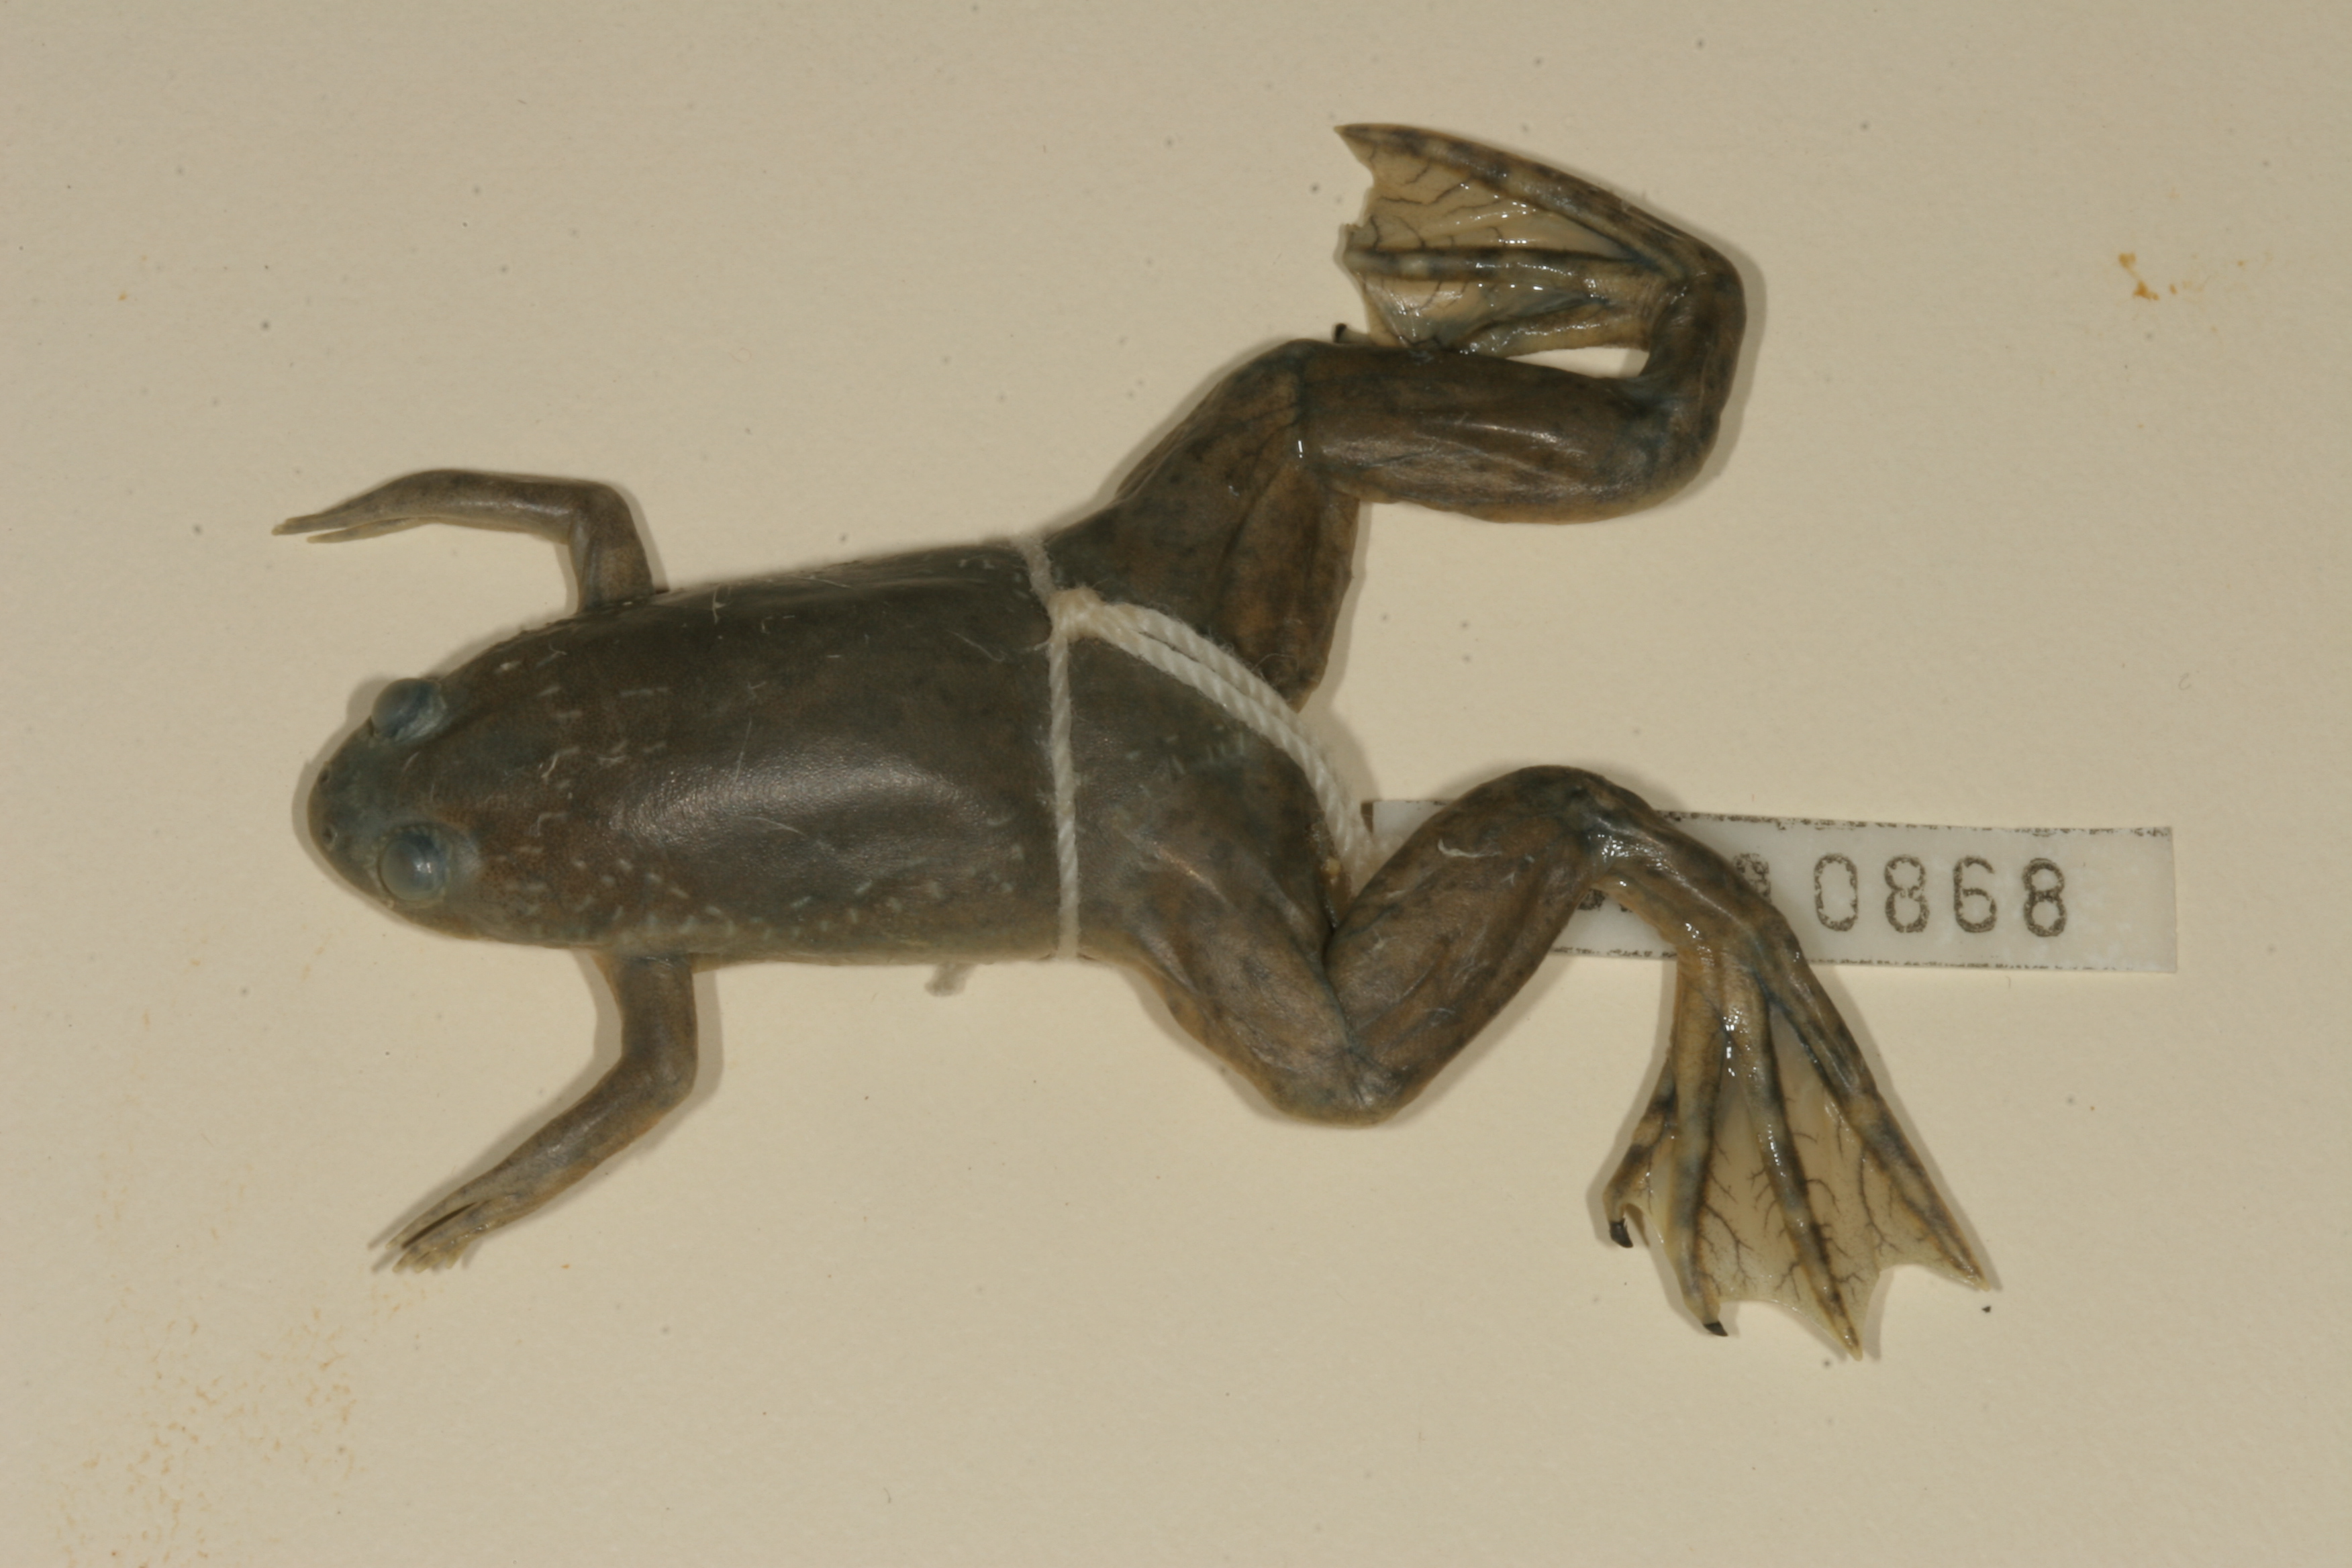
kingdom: Animalia
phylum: Chordata
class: Amphibia
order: Anura
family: Pipidae
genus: Xenopus
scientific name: Xenopus laevis
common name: African clawed frog
